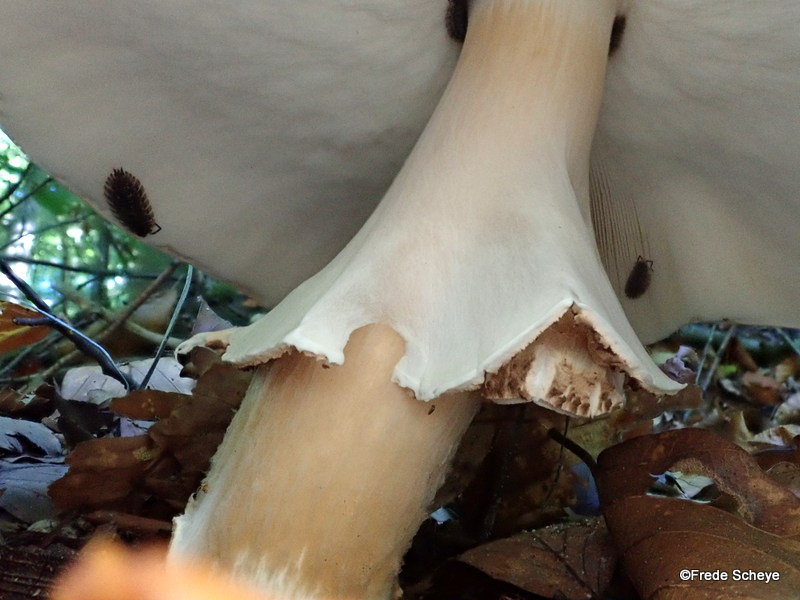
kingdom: Fungi
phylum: Basidiomycota
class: Agaricomycetes
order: Agaricales
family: Agaricaceae
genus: Echinoderma
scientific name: Echinoderma asperum
